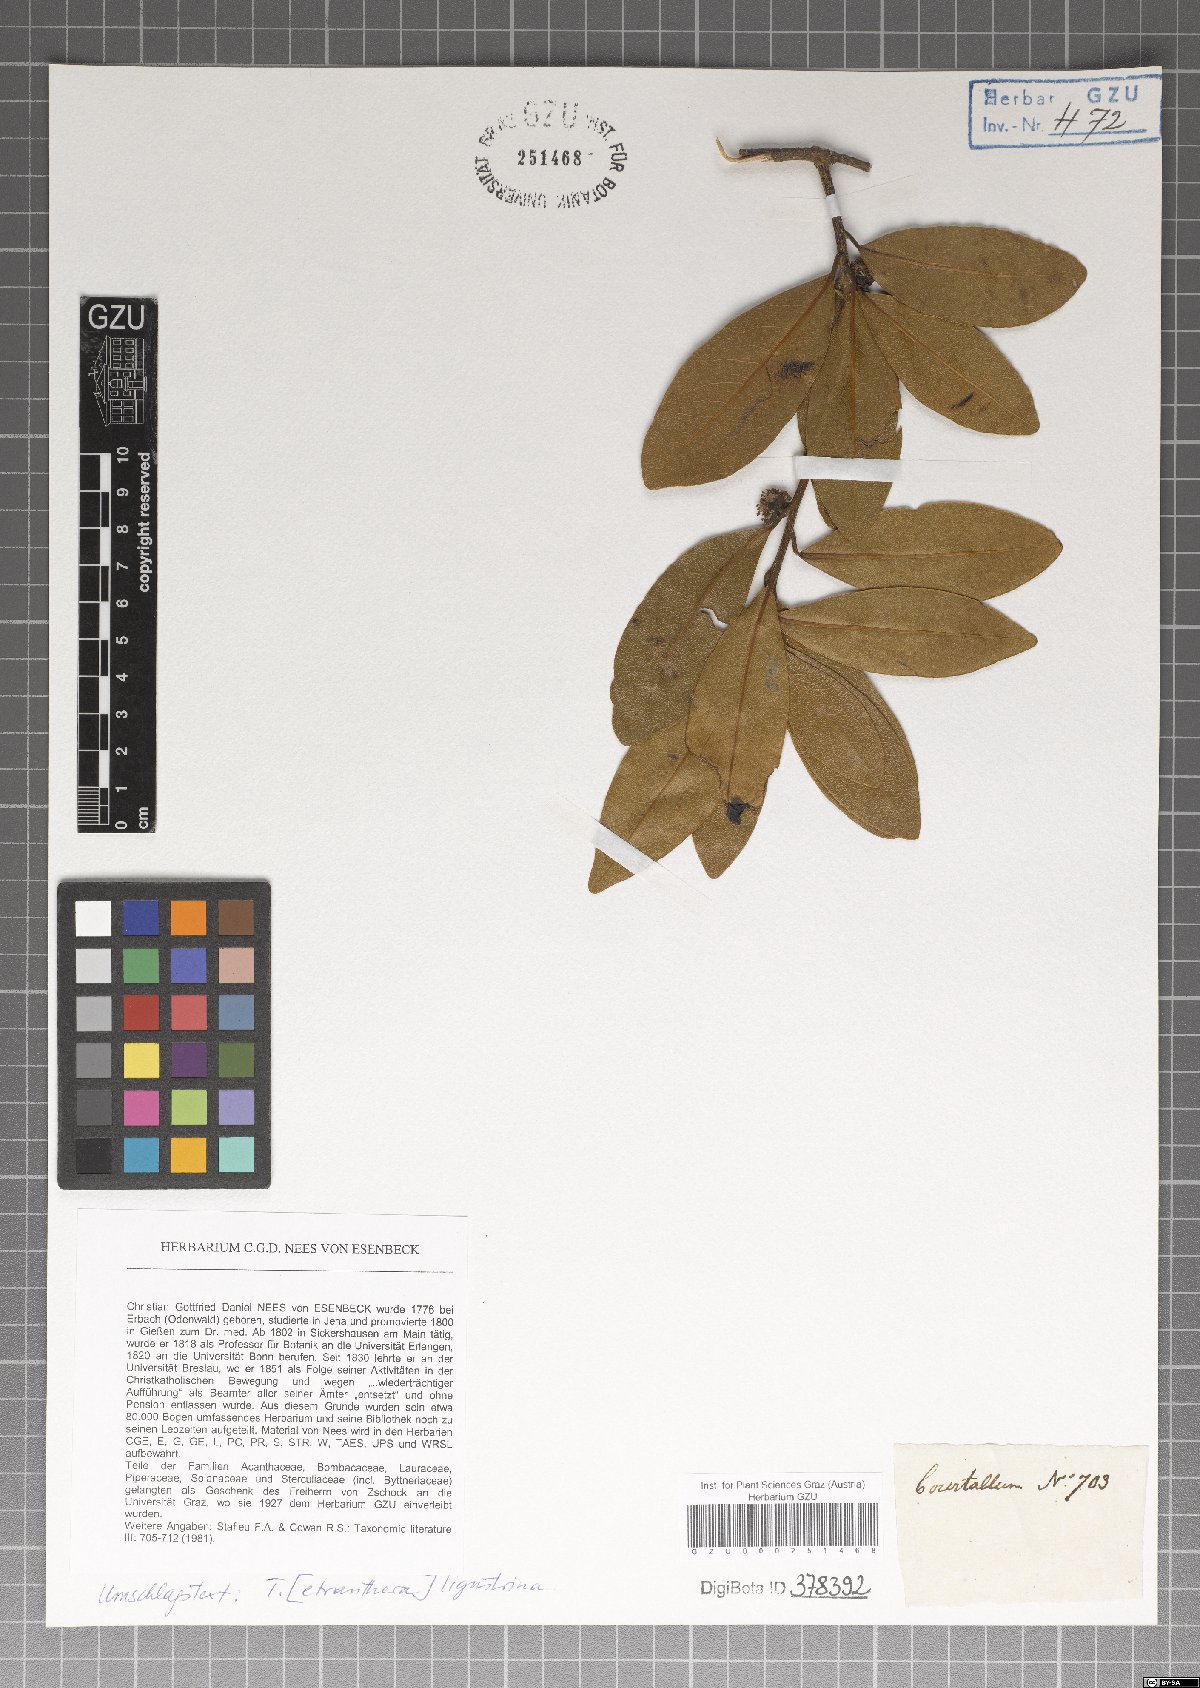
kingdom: Plantae
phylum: Tracheophyta
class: Magnoliopsida
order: Laurales
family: Lauraceae
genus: Litsea
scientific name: Litsea ligustrina
